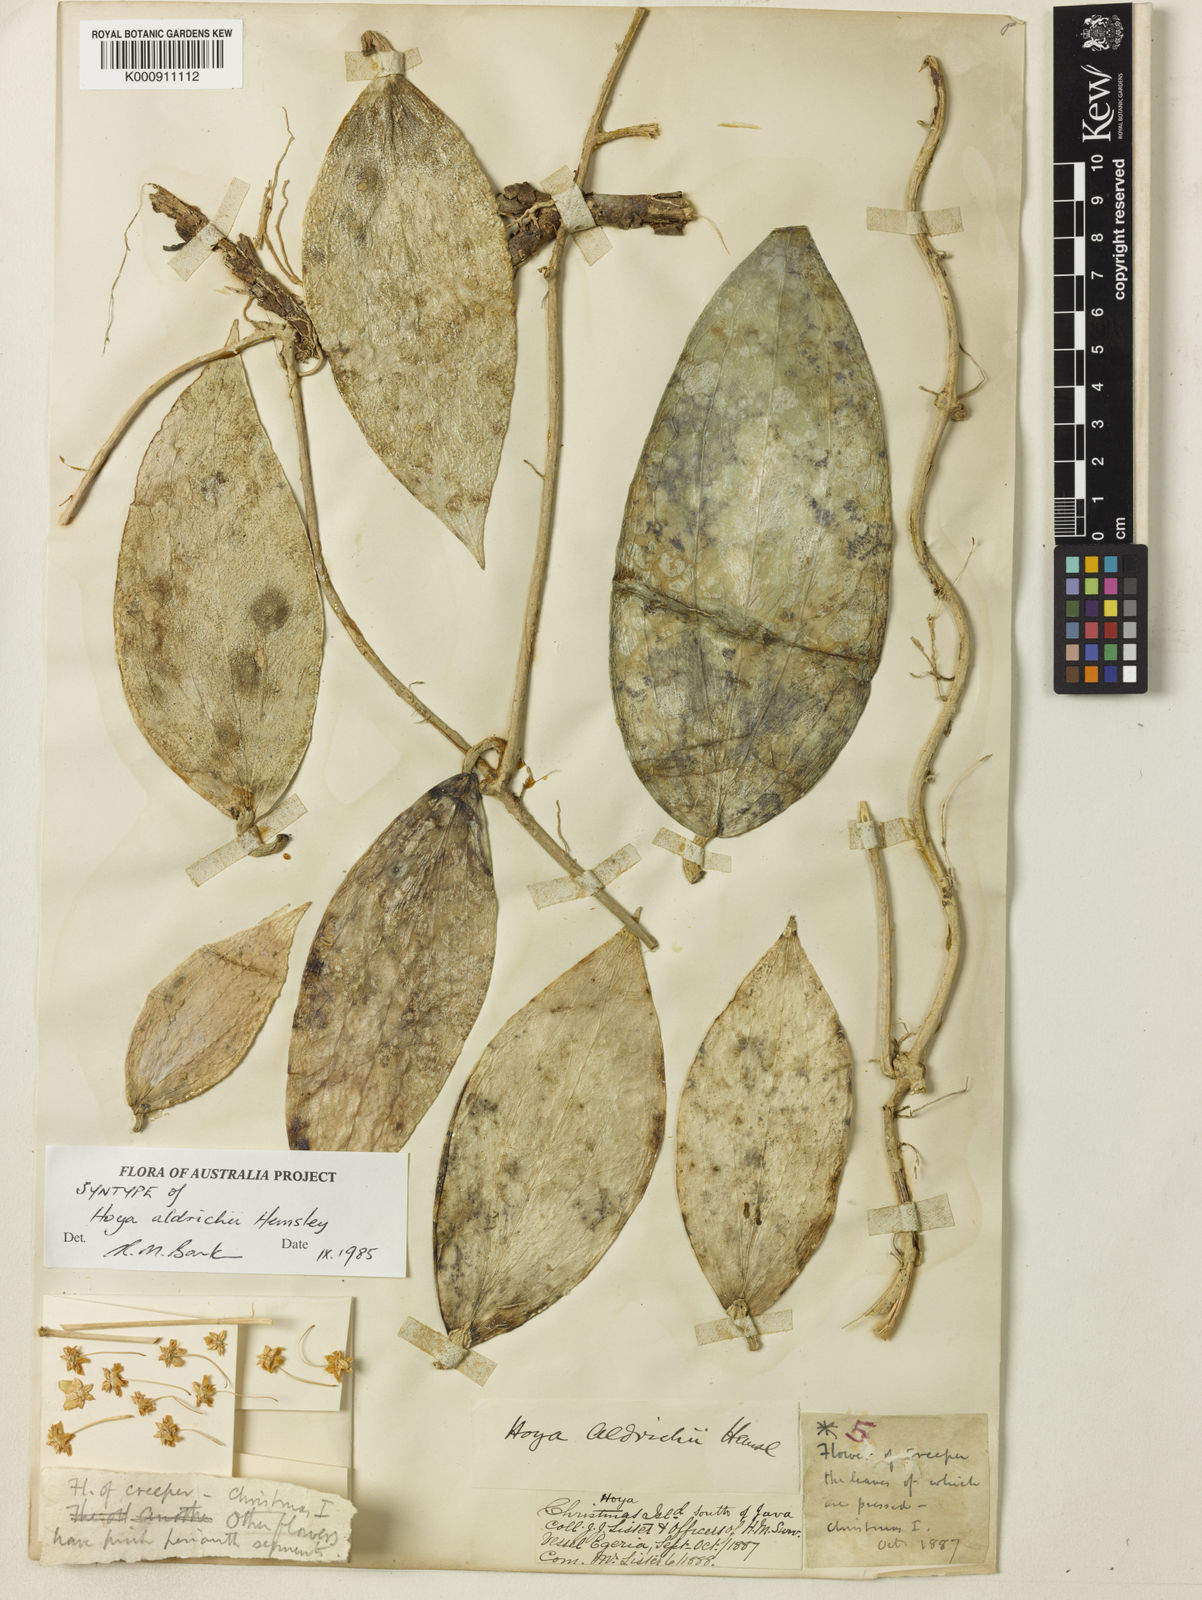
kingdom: Plantae
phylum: Tracheophyta
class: Magnoliopsida
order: Gentianales
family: Apocynaceae
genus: Hoya
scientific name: Hoya aldrichii
